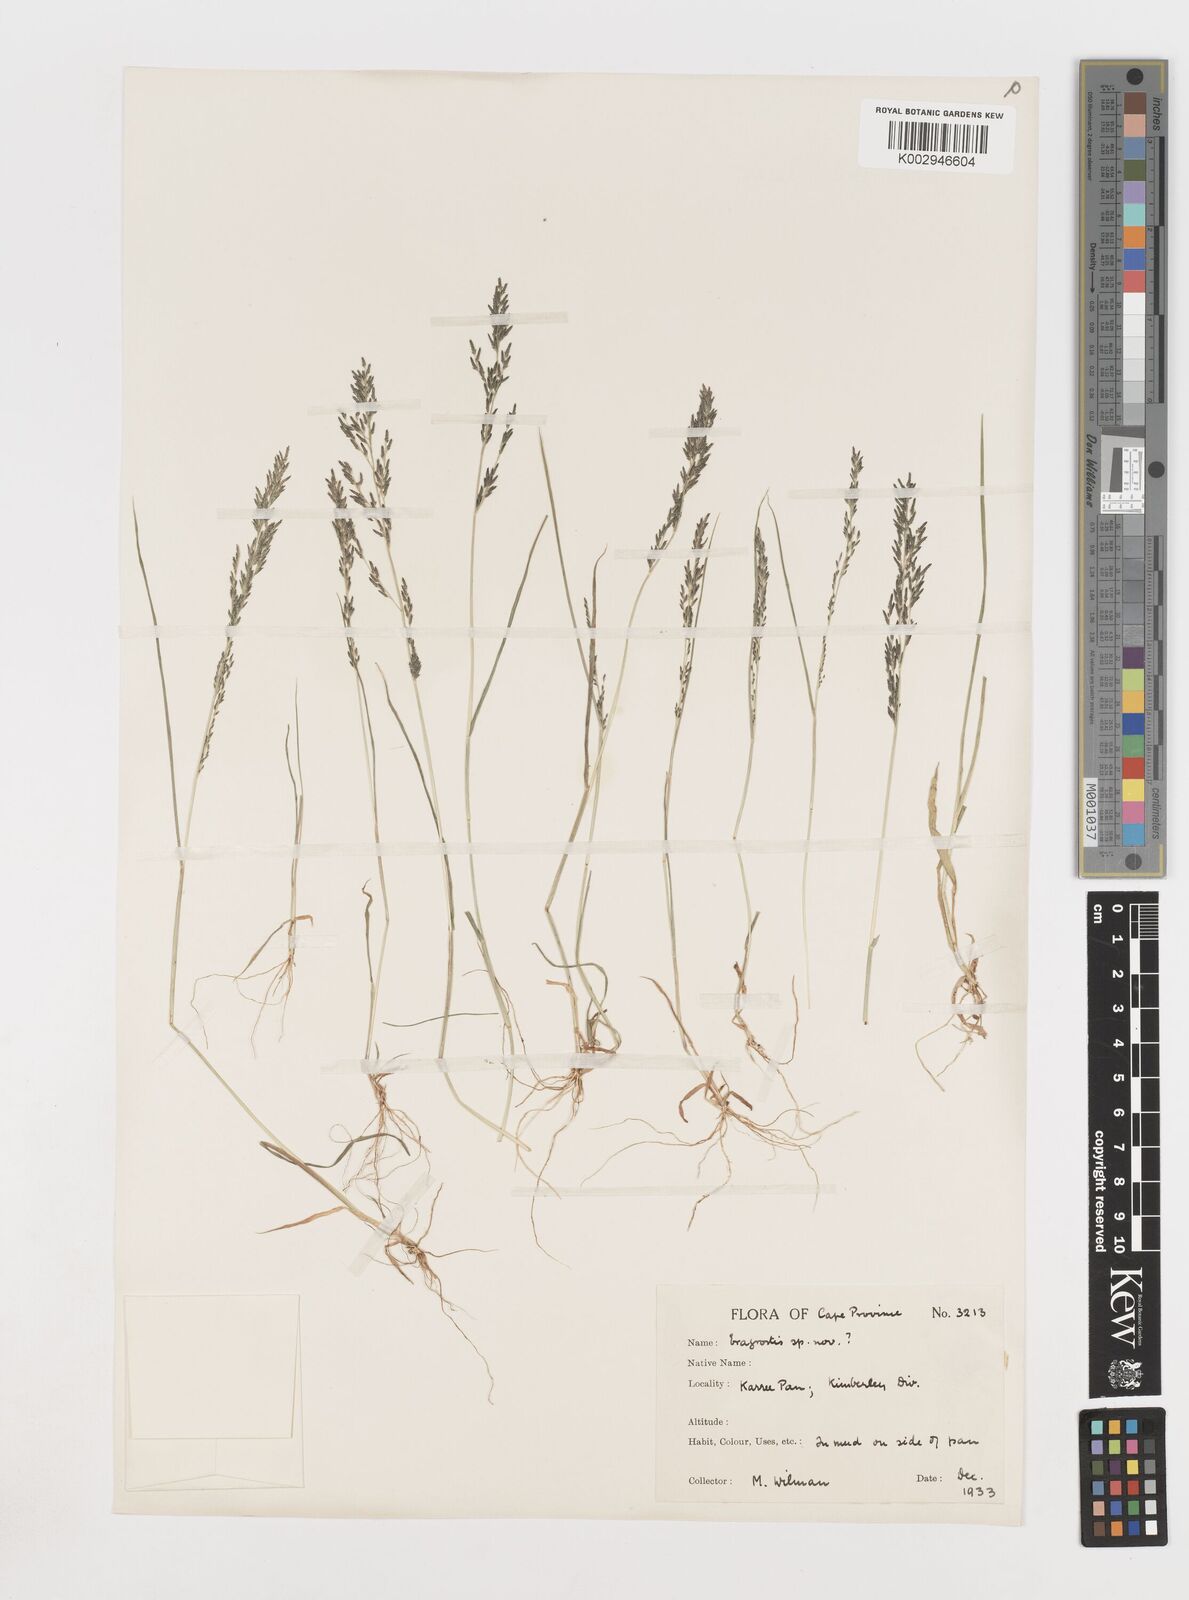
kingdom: Plantae
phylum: Tracheophyta
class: Liliopsida
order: Poales
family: Poaceae
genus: Eragrostis
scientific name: Eragrostis homomalla
